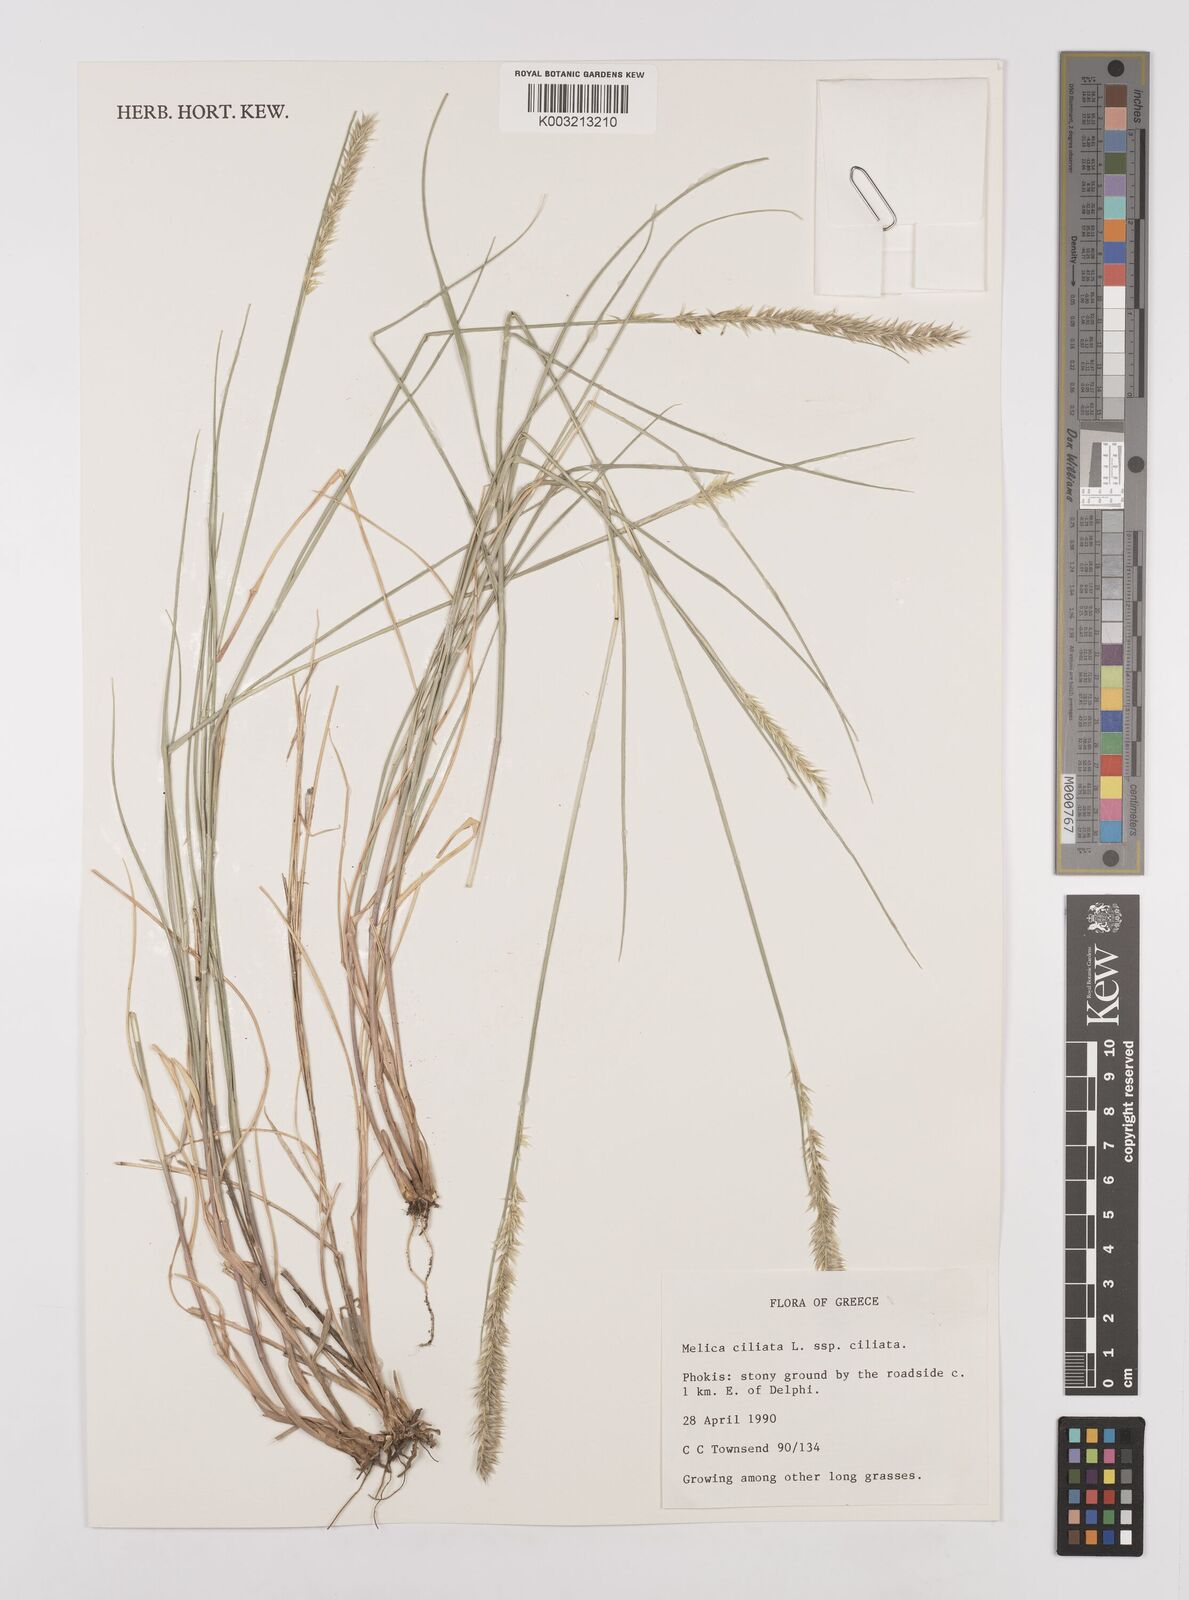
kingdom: Plantae
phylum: Tracheophyta
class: Liliopsida
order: Poales
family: Poaceae
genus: Melica
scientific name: Melica ciliata
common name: Hairy melicgrass
